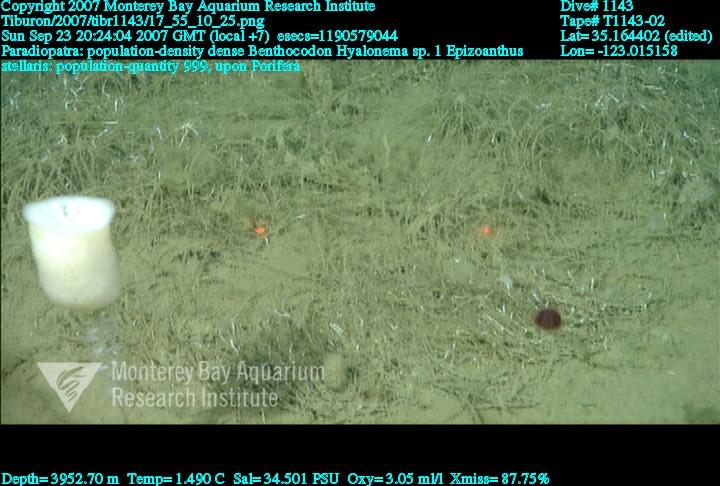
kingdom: Animalia
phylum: Porifera
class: Hexactinellida
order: Amphidiscosida
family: Hyalonematidae
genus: Hyalonema
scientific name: Hyalonema
